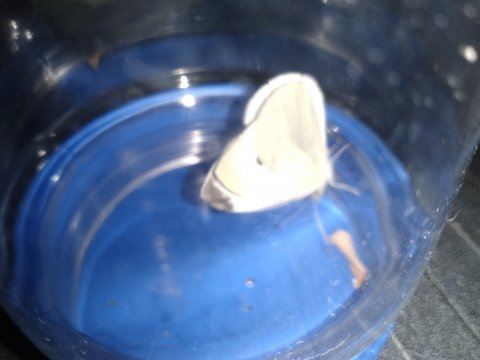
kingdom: Animalia
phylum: Arthropoda
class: Insecta
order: Lepidoptera
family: Pieridae
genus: Pieris
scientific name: Pieris rapae
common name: Cabbage White
